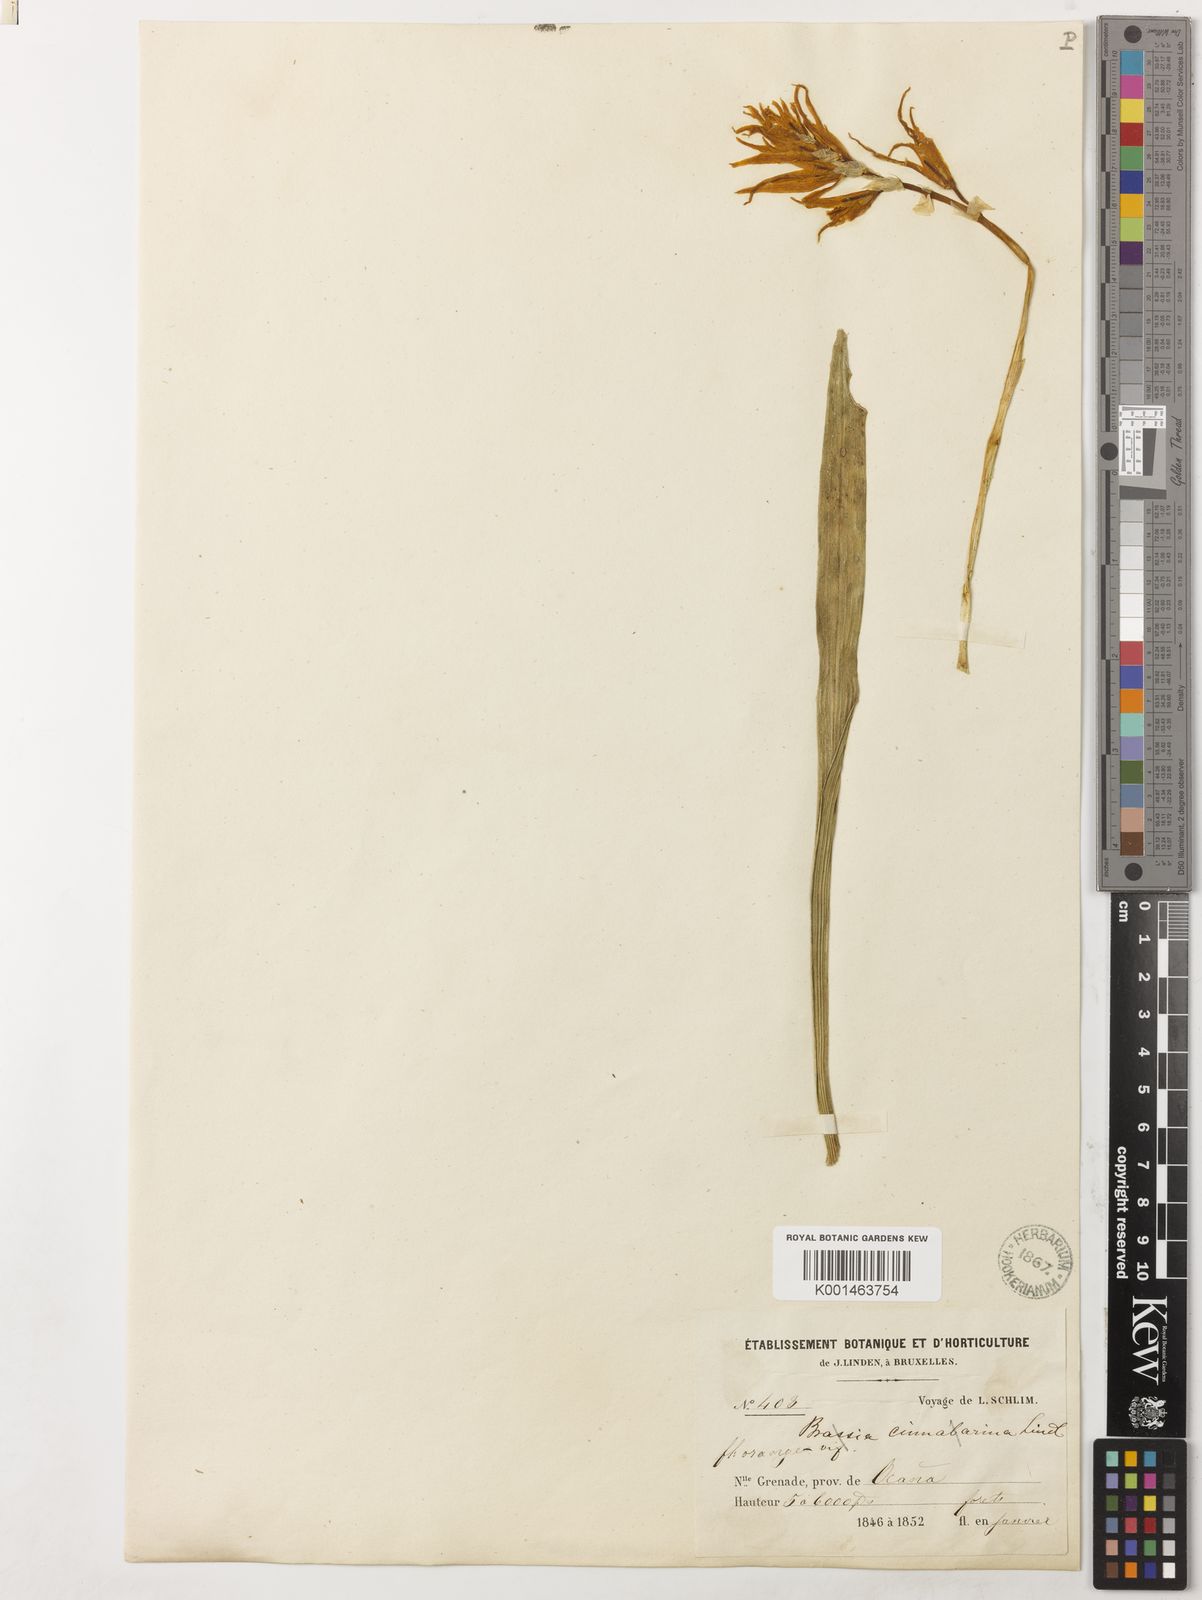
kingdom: Plantae
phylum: Tracheophyta
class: Liliopsida
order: Asparagales
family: Orchidaceae
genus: Brassia
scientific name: Brassia aurantiaca
